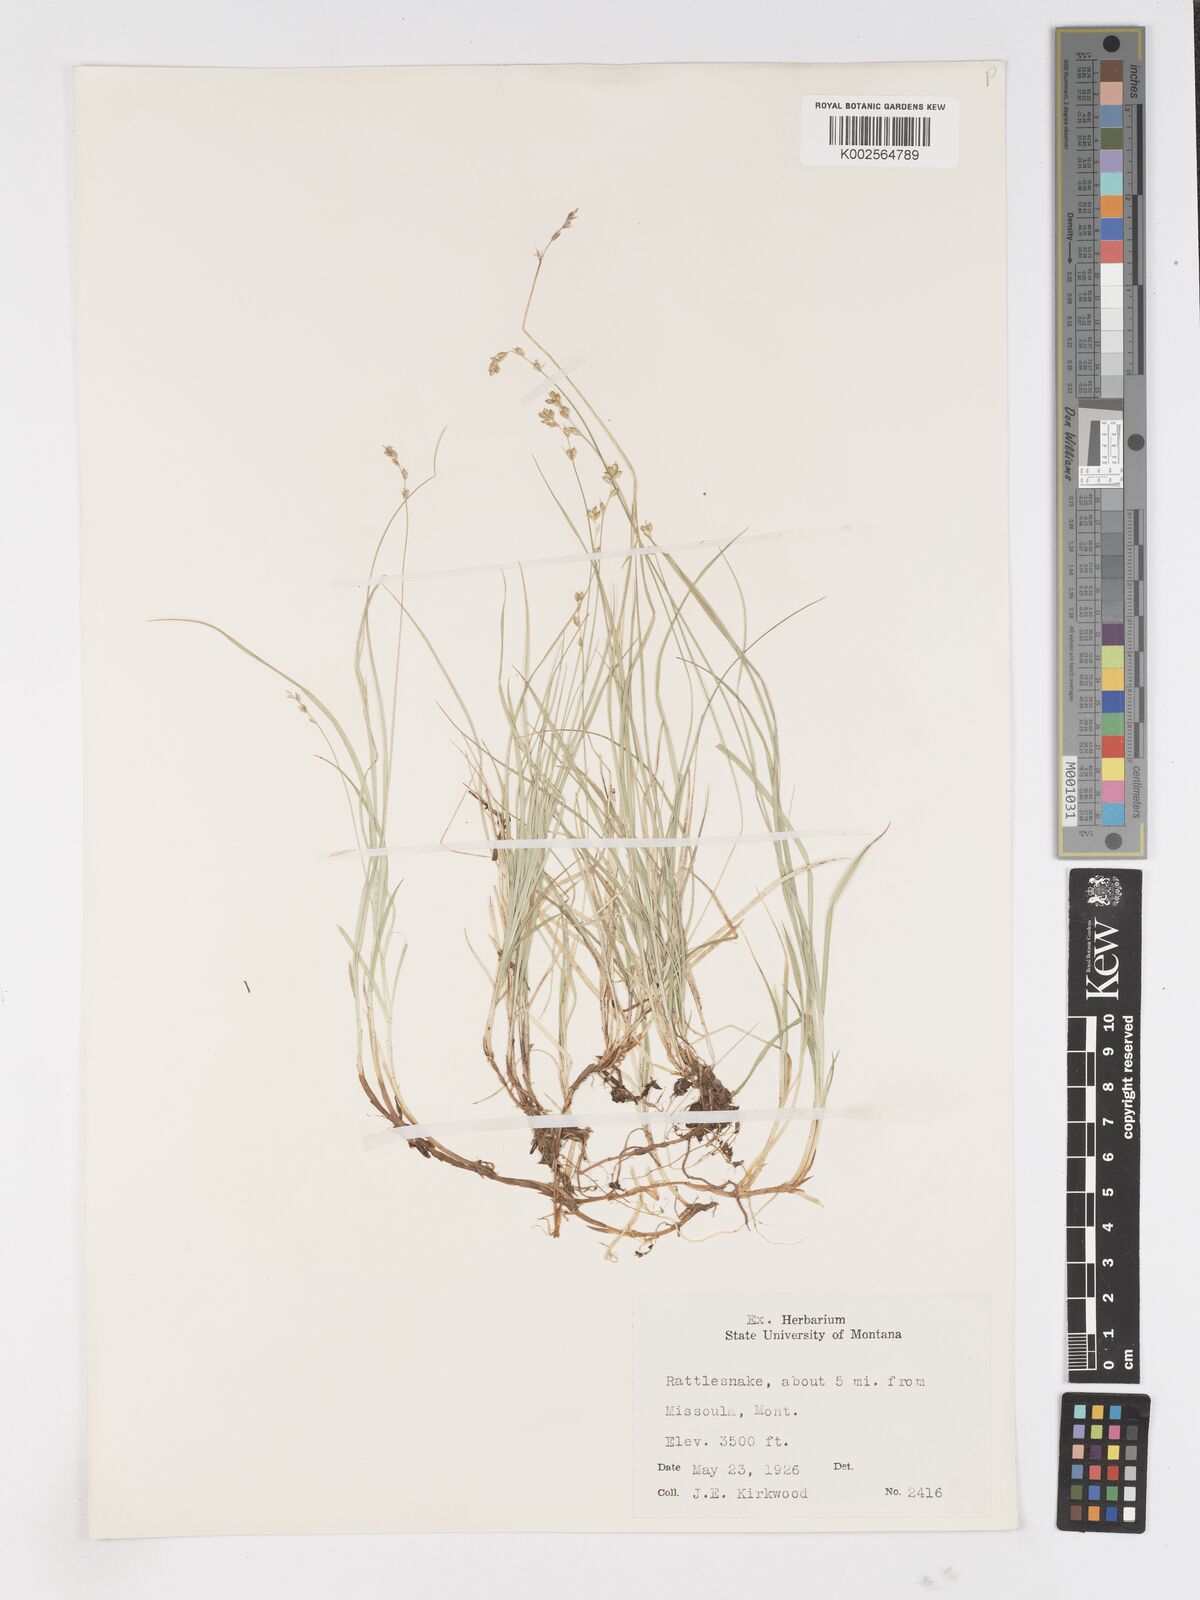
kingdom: Plantae
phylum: Tracheophyta
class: Liliopsida
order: Poales
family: Cyperaceae
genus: Carex
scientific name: Carex
